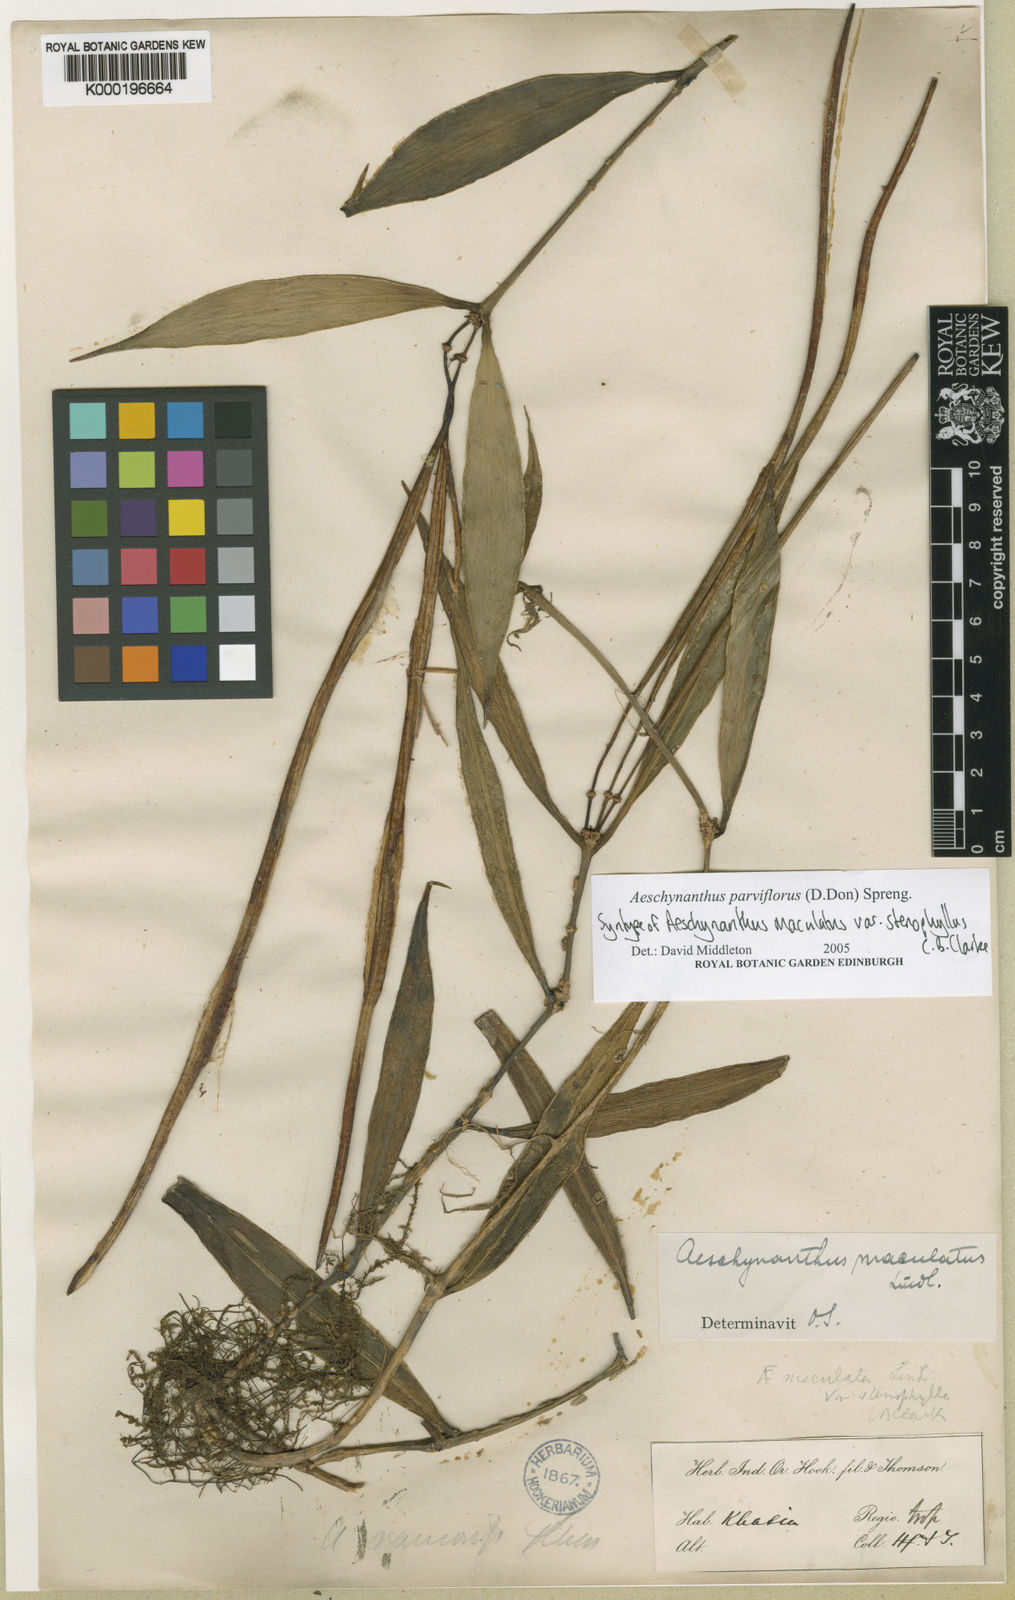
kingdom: Plantae
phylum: Tracheophyta
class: Magnoliopsida
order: Lamiales
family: Gesneriaceae
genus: Aeschynanthus
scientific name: Aeschynanthus parviflorus
